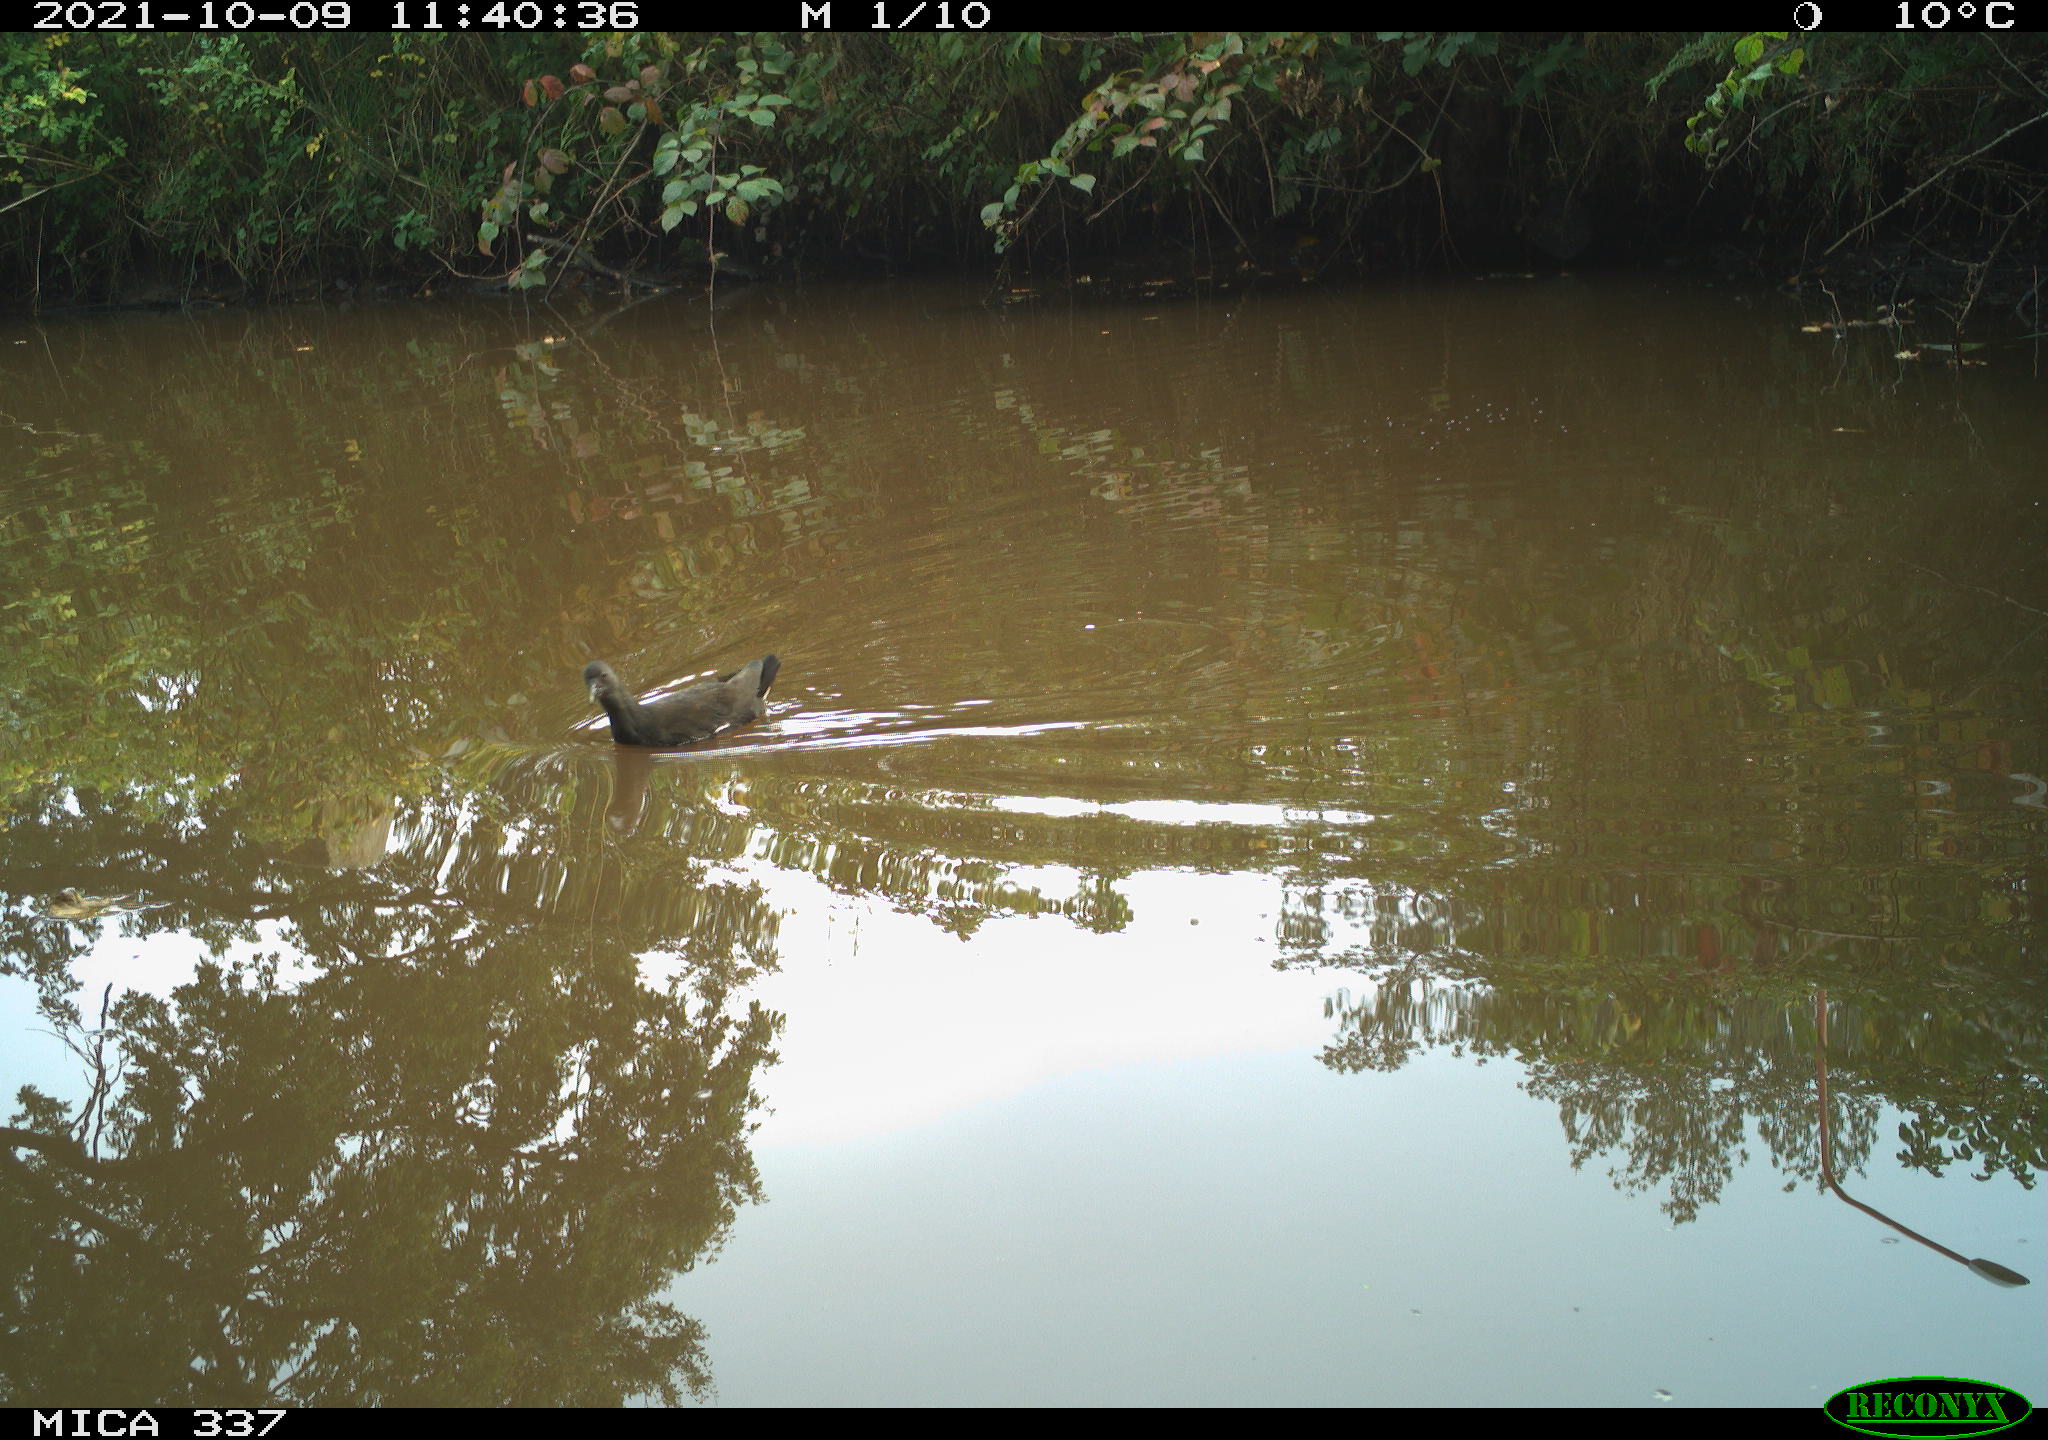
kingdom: Animalia
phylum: Chordata
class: Aves
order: Gruiformes
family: Rallidae
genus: Gallinula
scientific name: Gallinula chloropus
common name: Common moorhen
